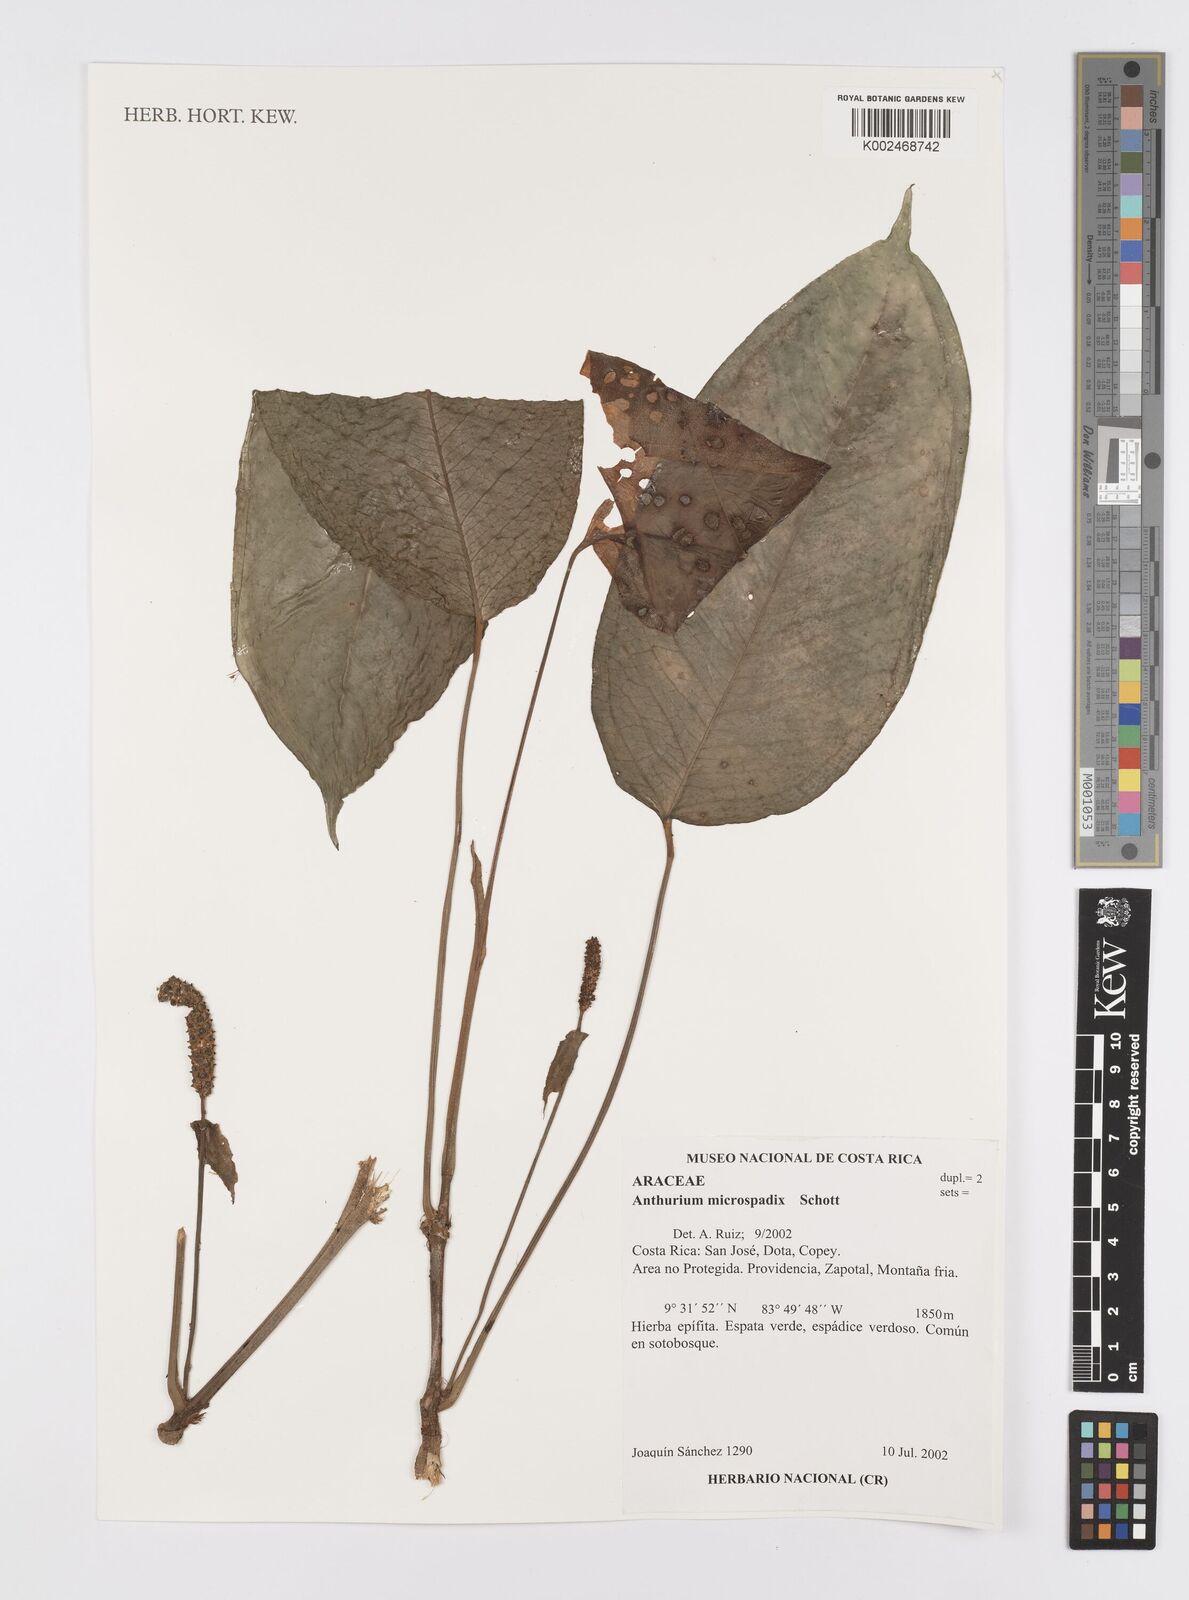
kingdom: Plantae
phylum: Tracheophyta
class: Liliopsida
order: Alismatales
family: Araceae
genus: Anthurium
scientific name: Anthurium microspadix
